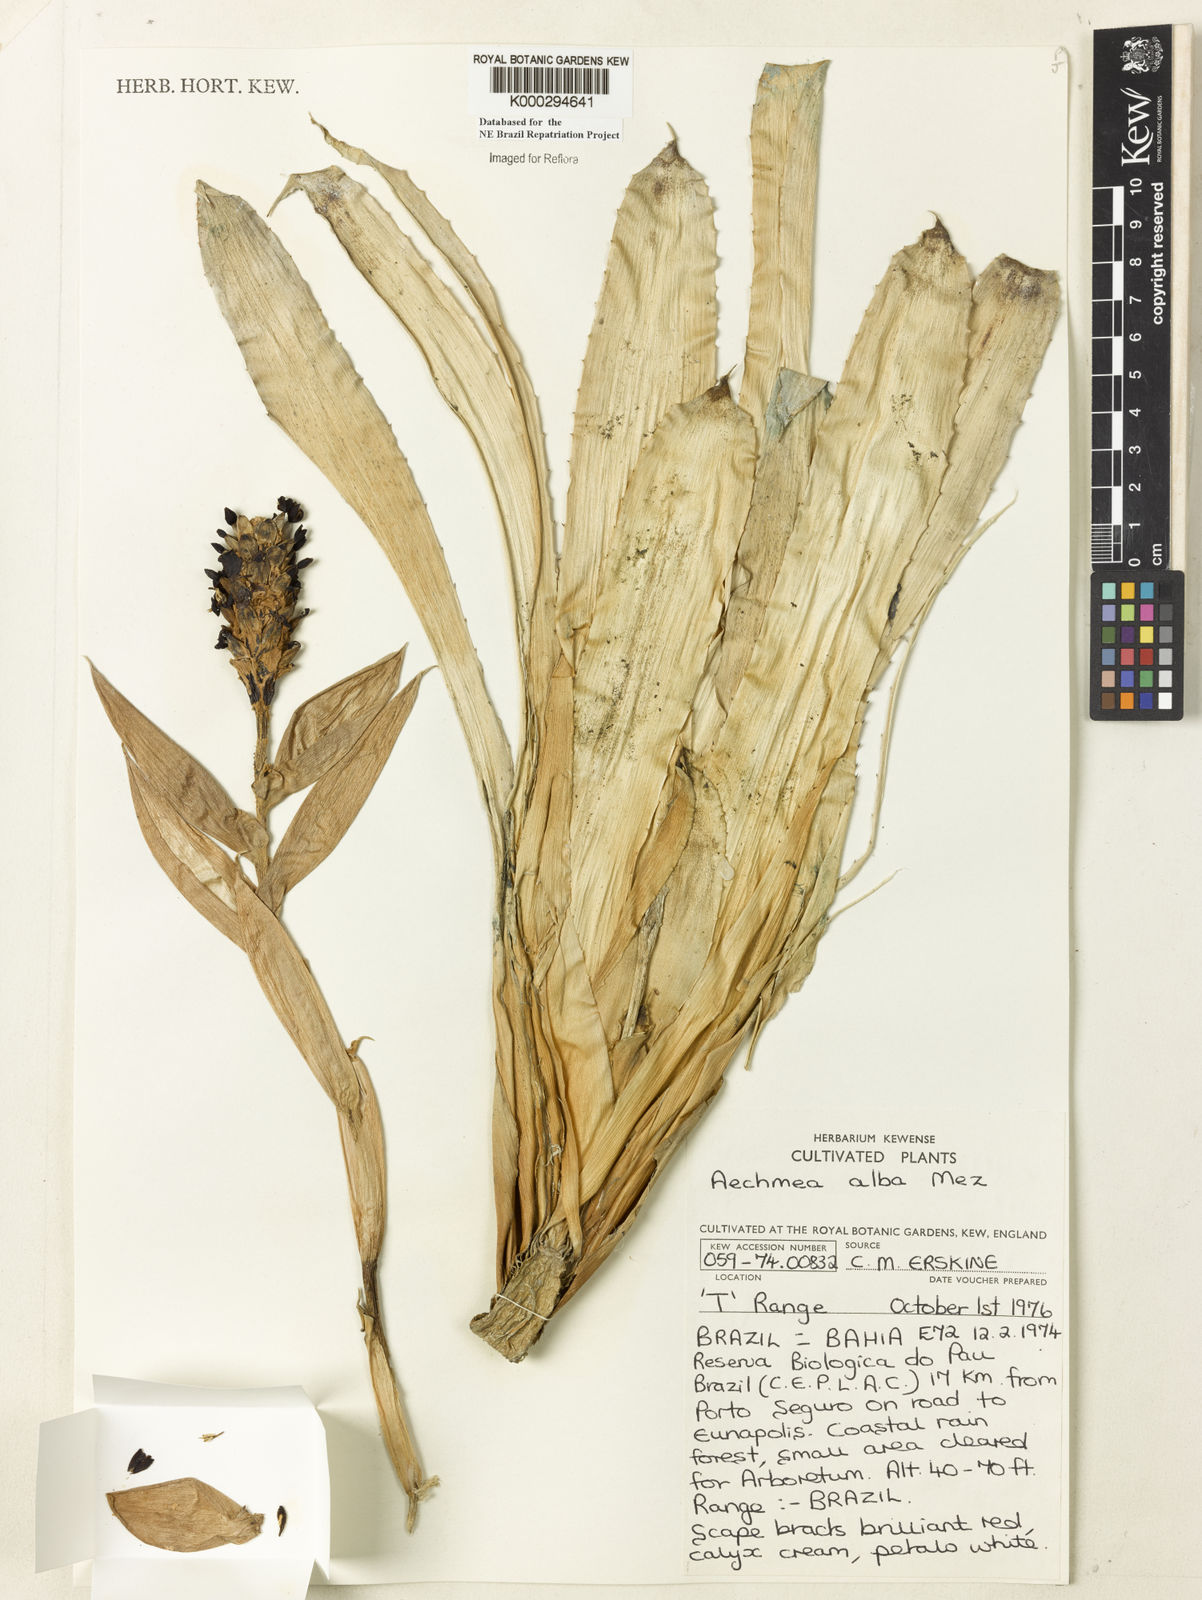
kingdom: Plantae
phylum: Tracheophyta
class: Liliopsida
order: Poales
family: Bromeliaceae
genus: Aechmea
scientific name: Aechmea alba
